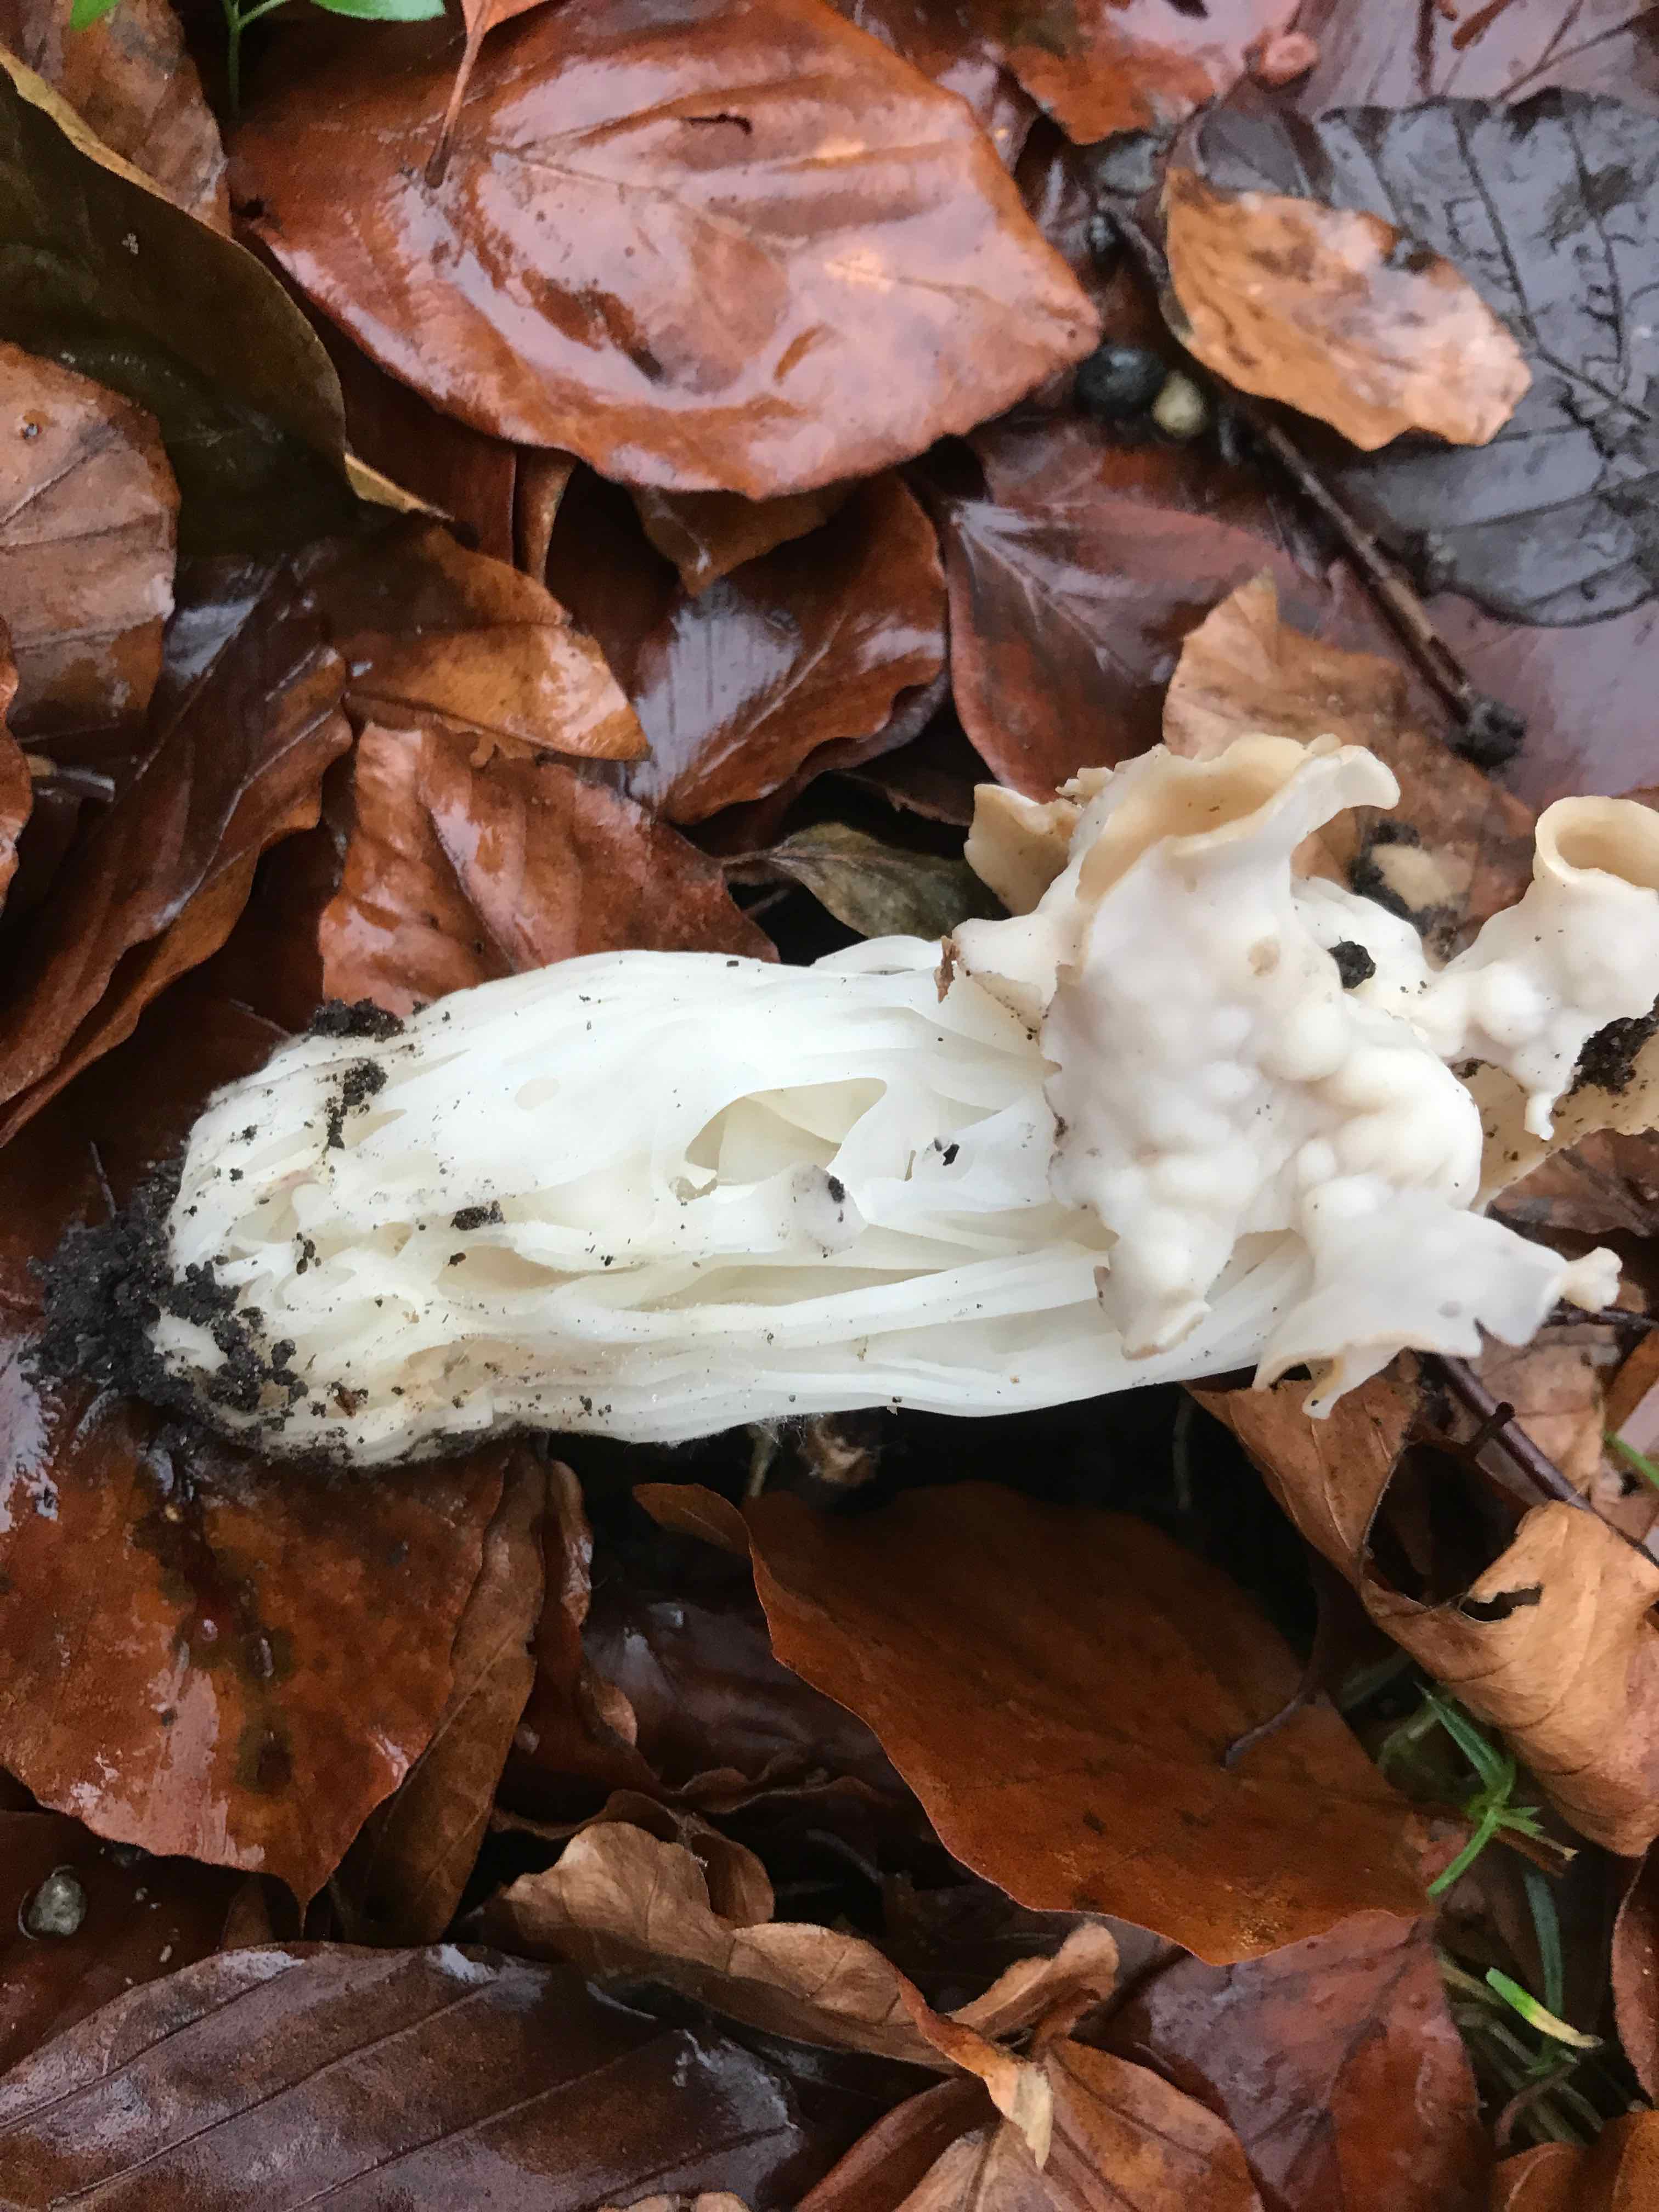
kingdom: Fungi
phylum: Ascomycota
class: Pezizomycetes
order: Pezizales
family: Helvellaceae
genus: Helvella
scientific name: Helvella crispa
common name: kruset foldhat
